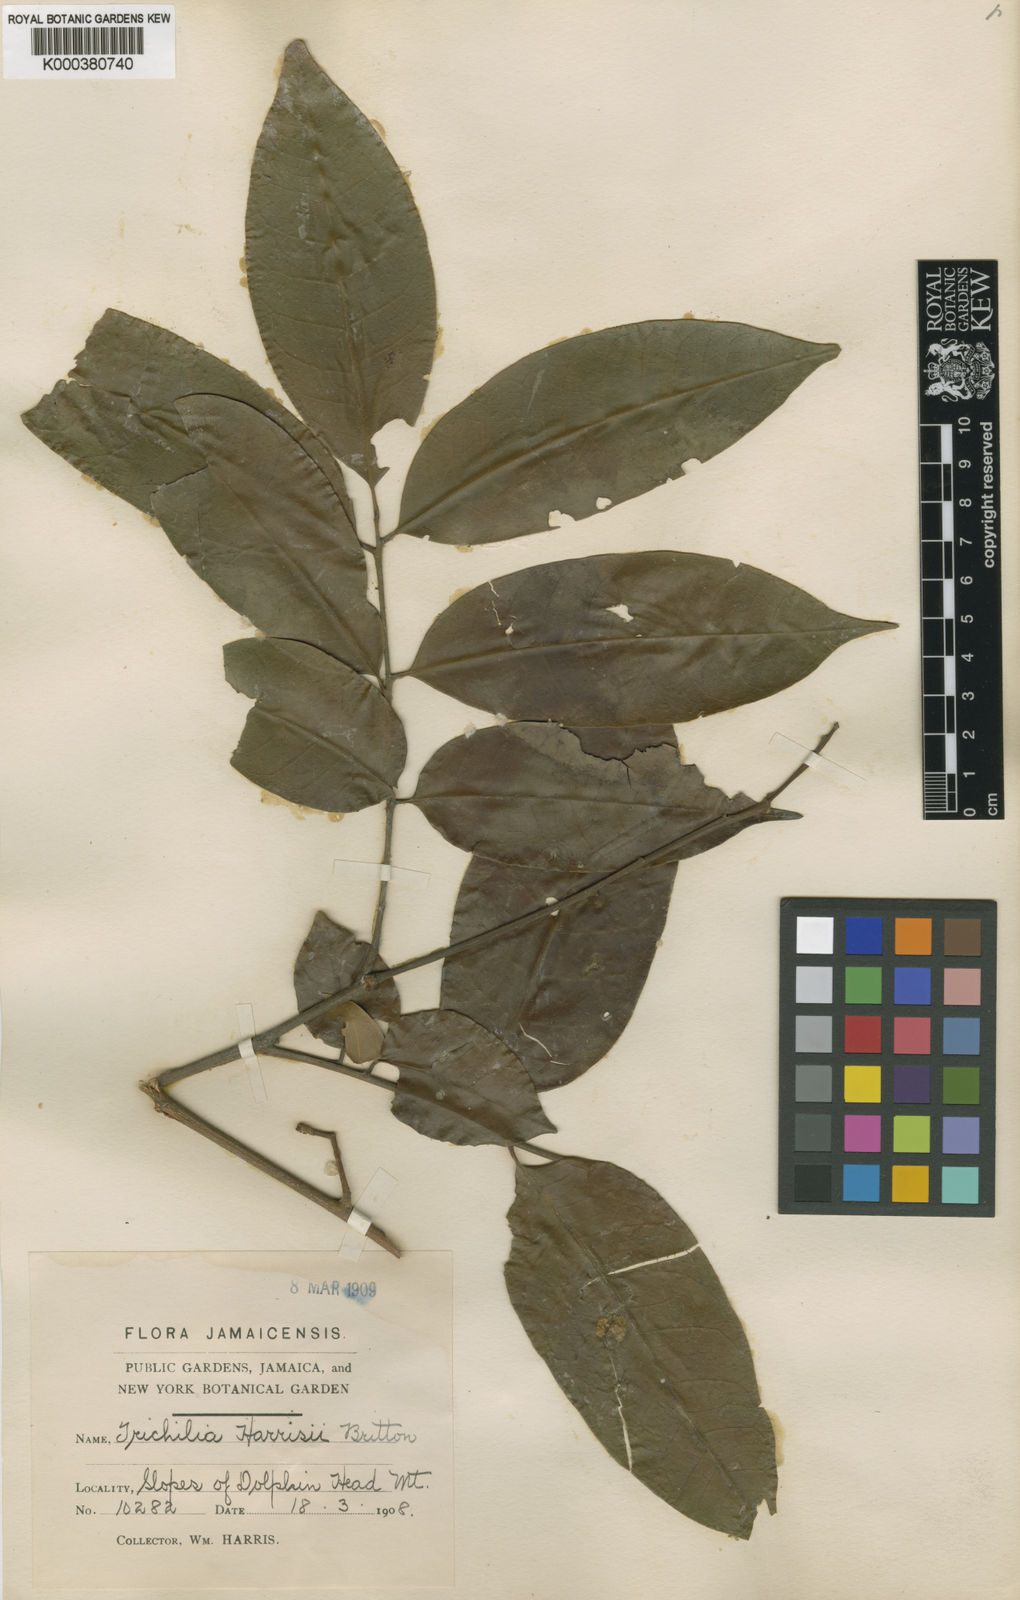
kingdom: Plantae
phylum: Tracheophyta
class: Magnoliopsida
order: Sapindales
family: Meliaceae
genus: Trichilia
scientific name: Trichilia moschata
